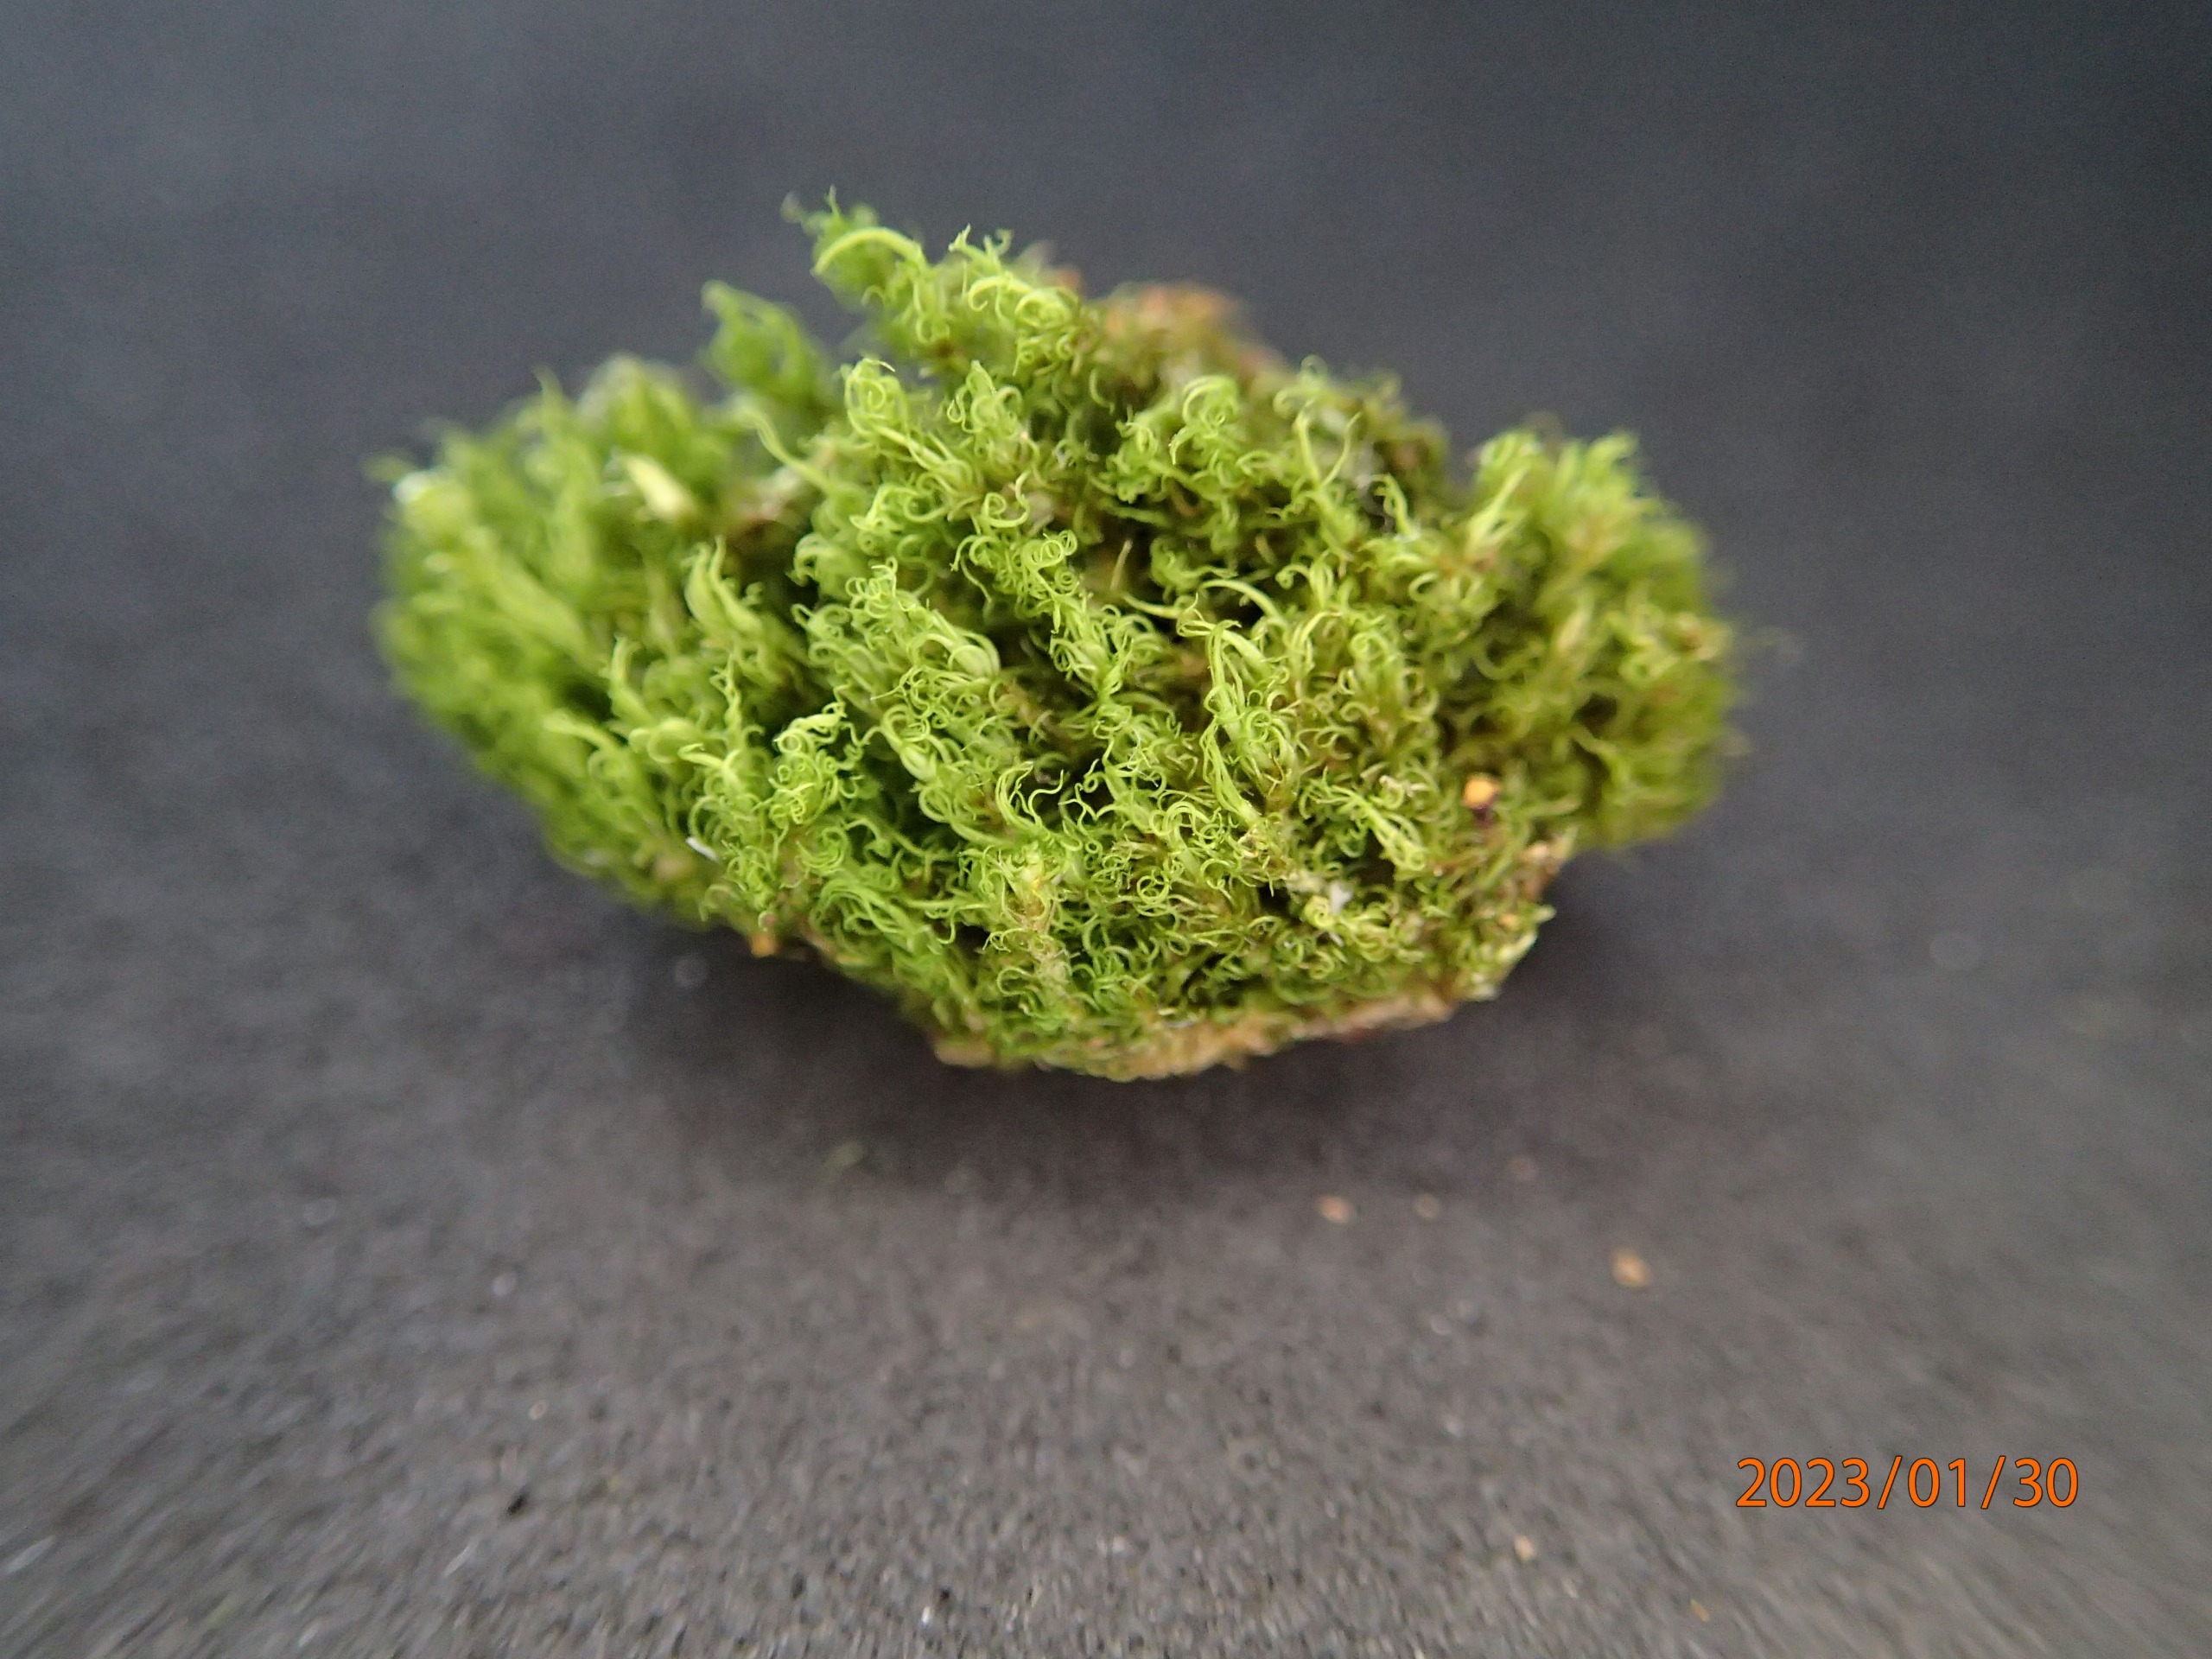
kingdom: Plantae
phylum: Bryophyta
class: Bryopsida
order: Dicranales
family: Dicranaceae
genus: Orthodicranum
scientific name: Orthodicranum montanum
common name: Tæt tyndvinge
